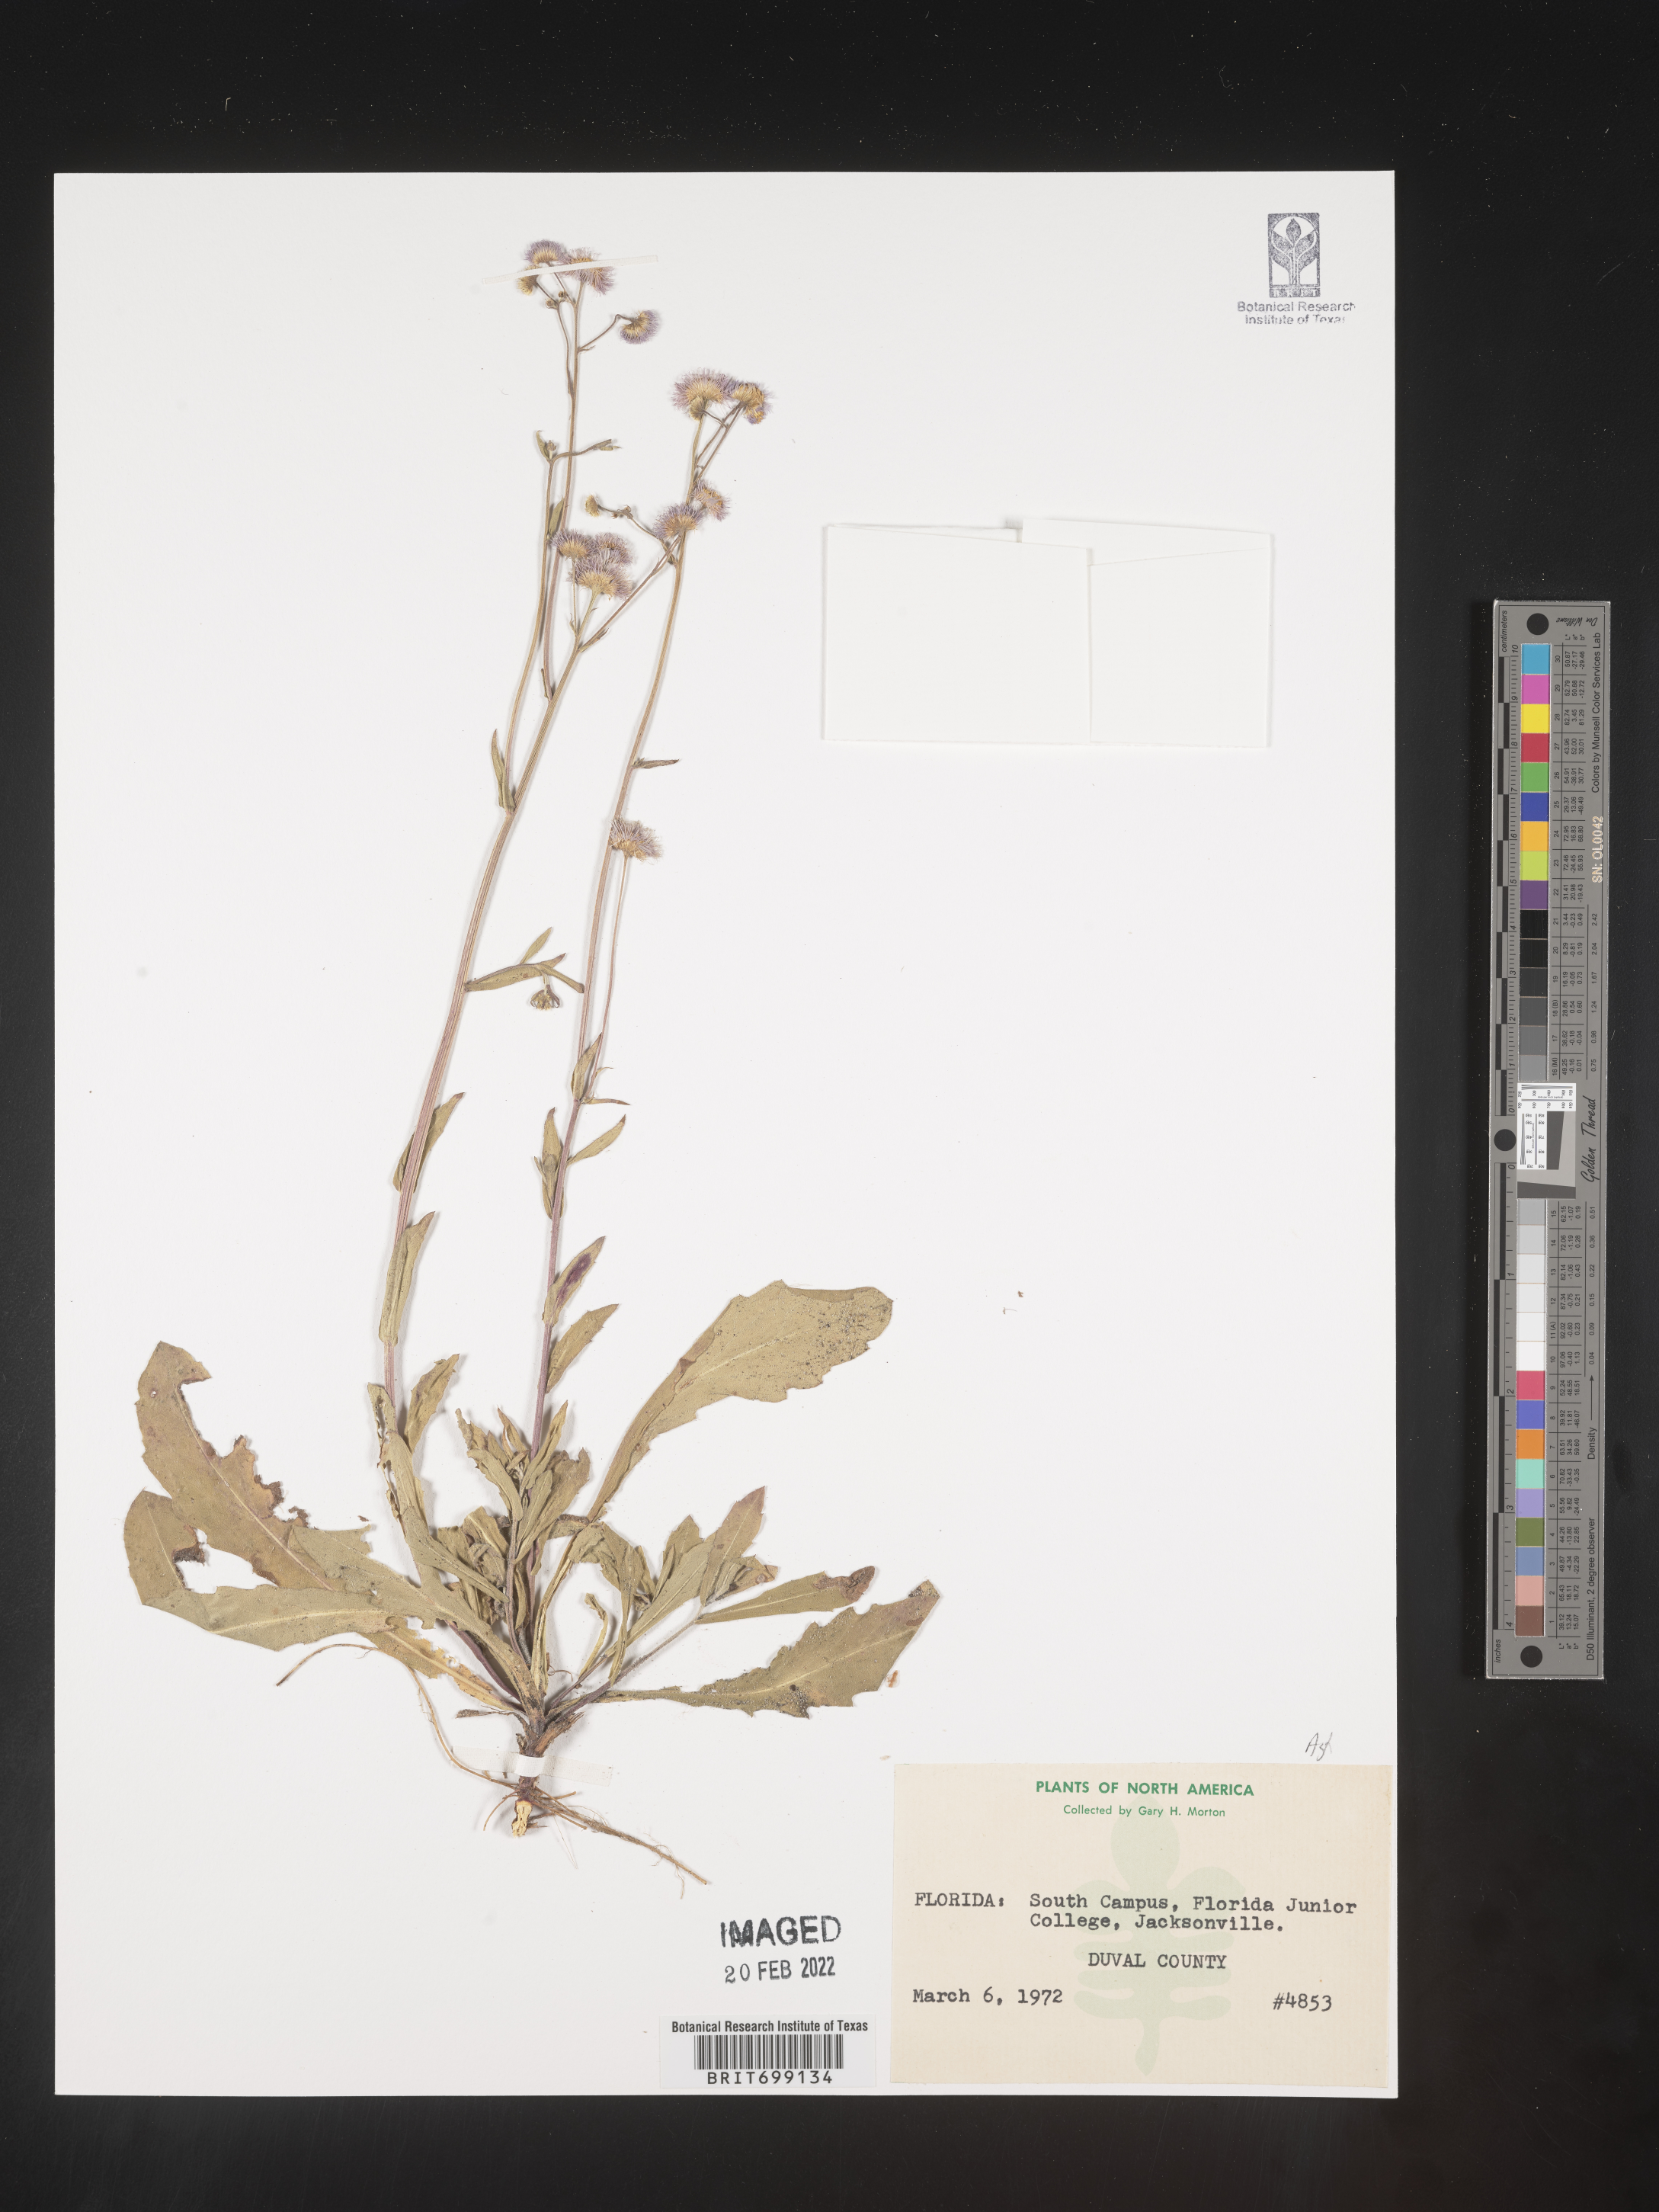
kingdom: Plantae
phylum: Tracheophyta
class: Magnoliopsida
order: Asterales
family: Asteraceae
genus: Erigeron
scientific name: Erigeron quercifolius
